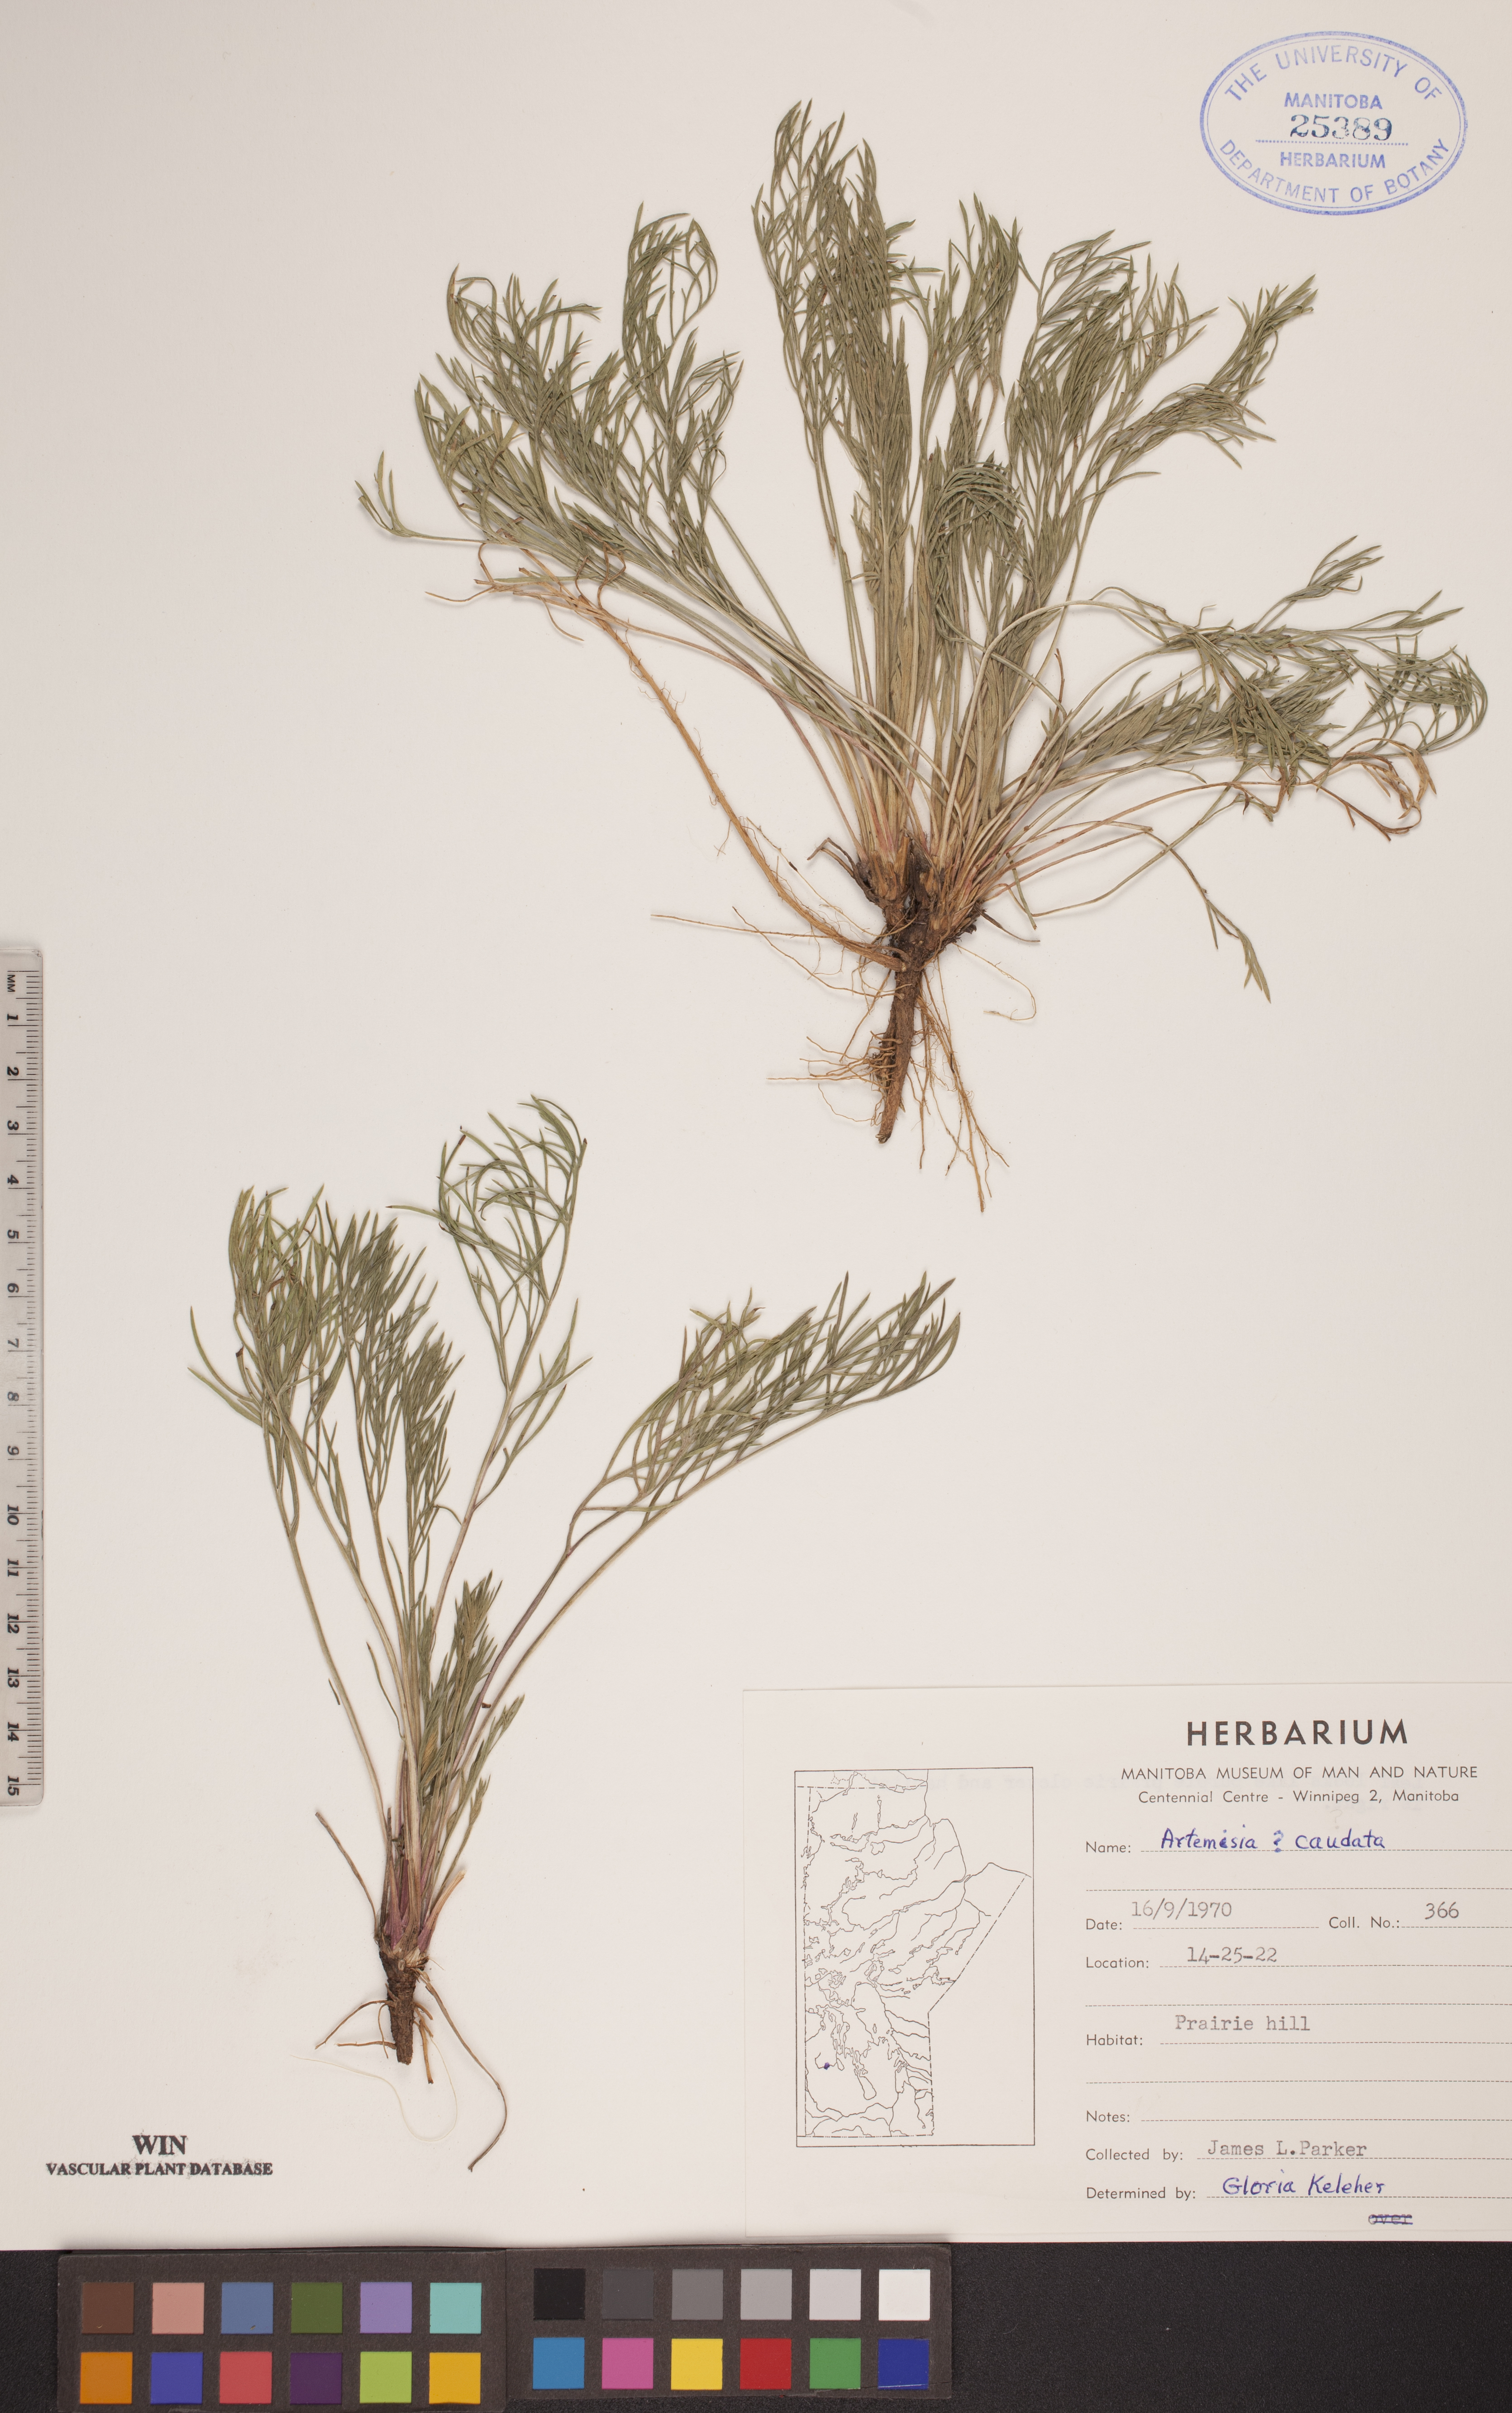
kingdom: Plantae
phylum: Tracheophyta
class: Magnoliopsida
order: Asterales
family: Asteraceae
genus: Artemisia
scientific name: Artemisia campestris
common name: Field wormwood
